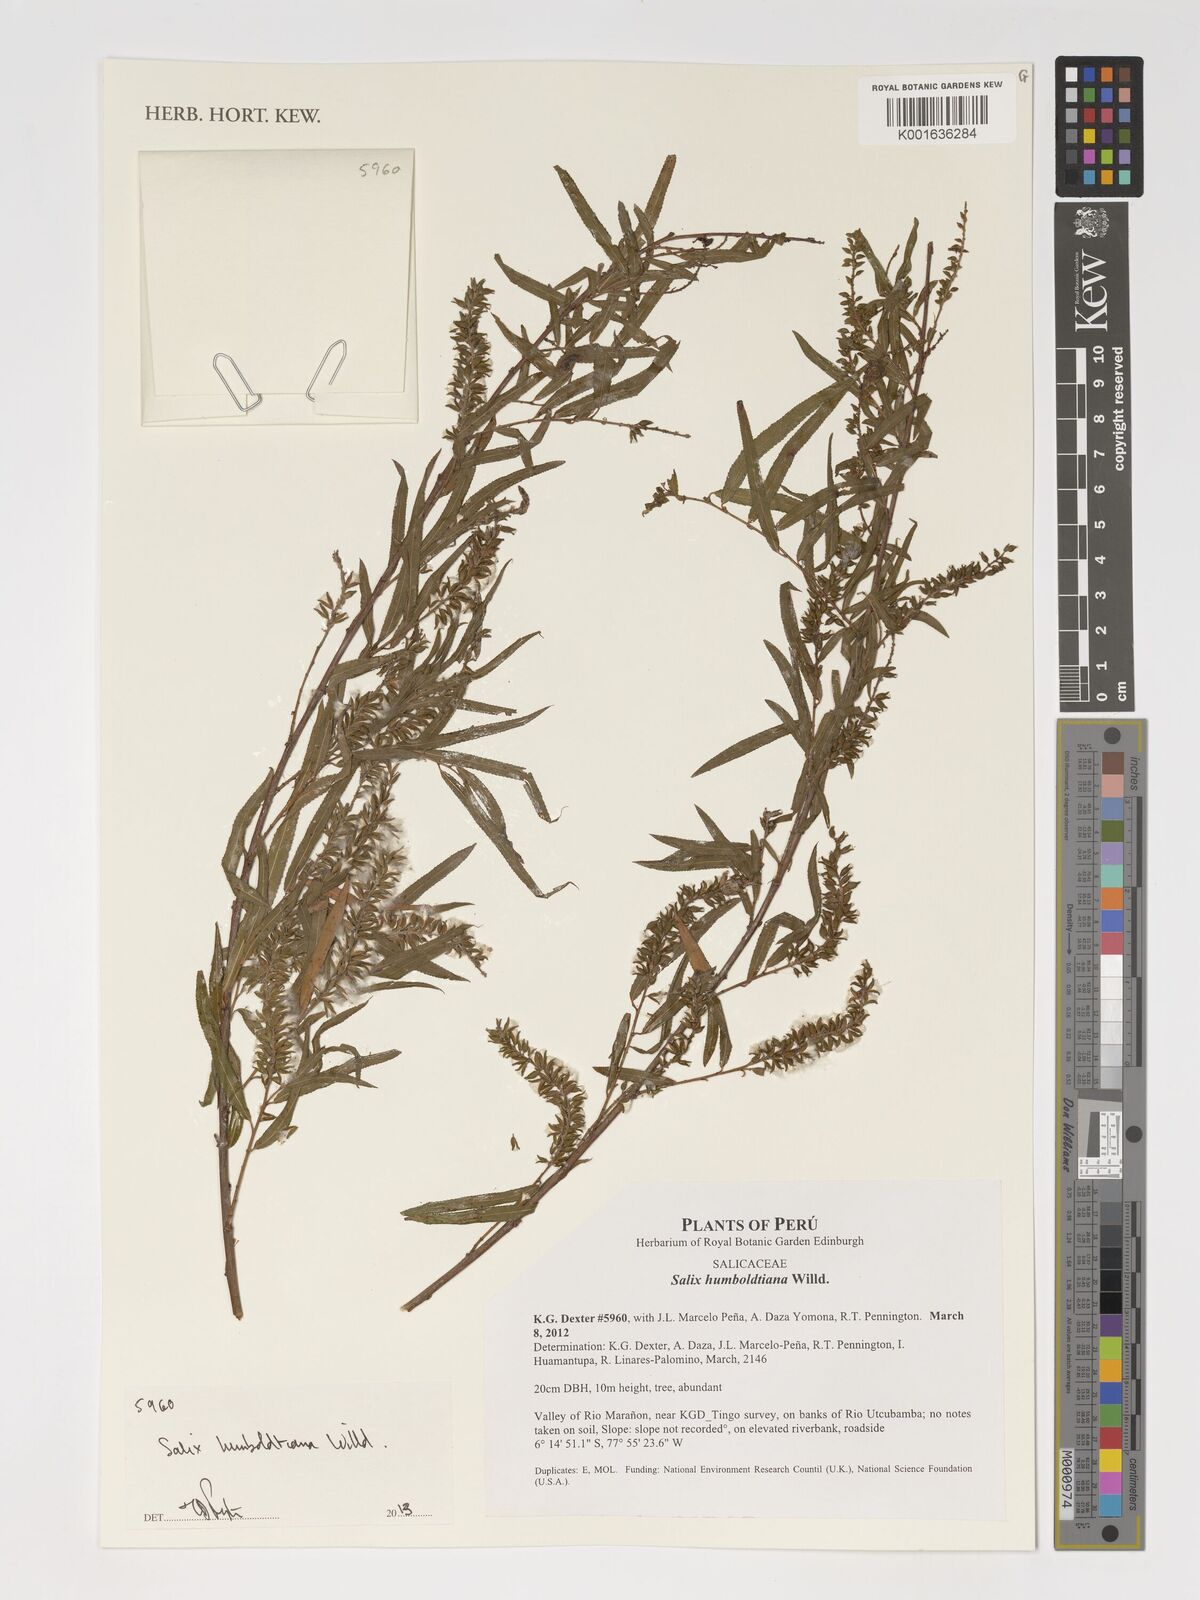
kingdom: Plantae
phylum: Tracheophyta
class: Magnoliopsida
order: Malpighiales
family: Salicaceae
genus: Salix
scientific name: Salix humboldtiana
